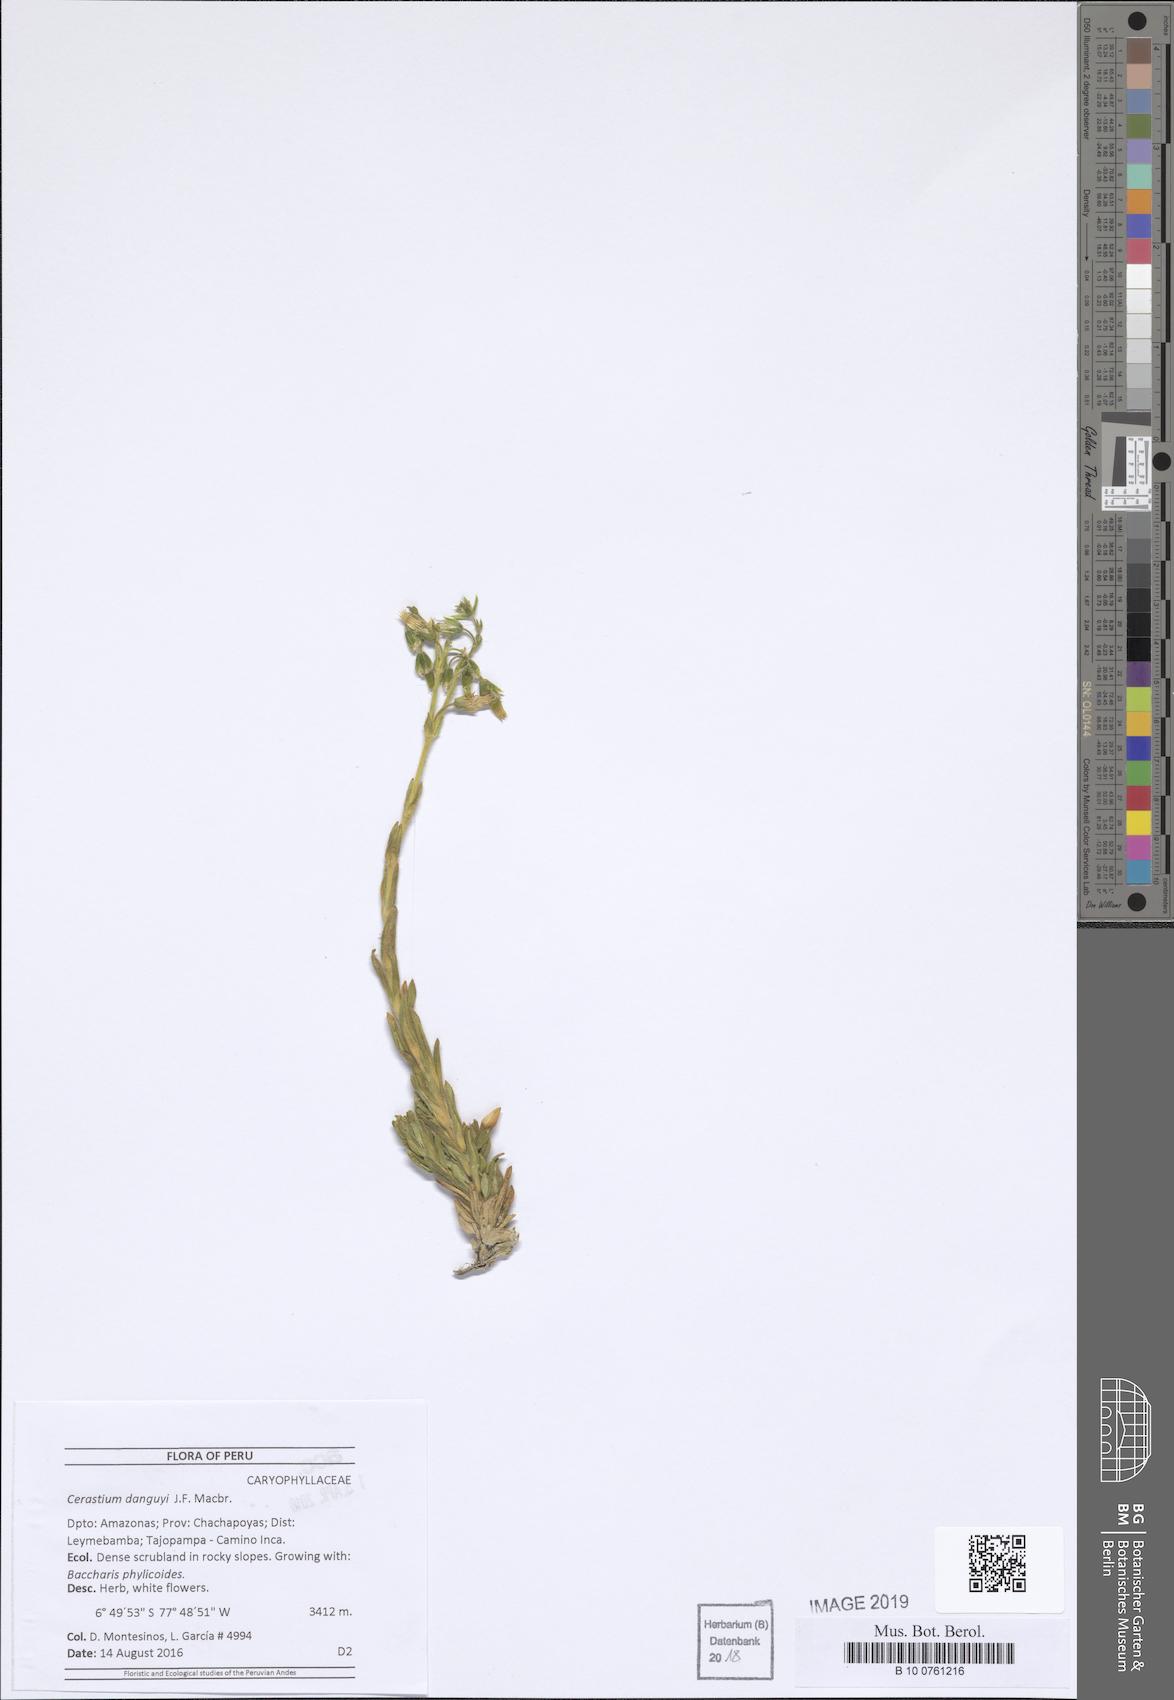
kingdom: Plantae
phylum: Tracheophyta
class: Magnoliopsida
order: Caryophyllales
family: Caryophyllaceae
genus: Cerastium
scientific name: Cerastium danguyi
